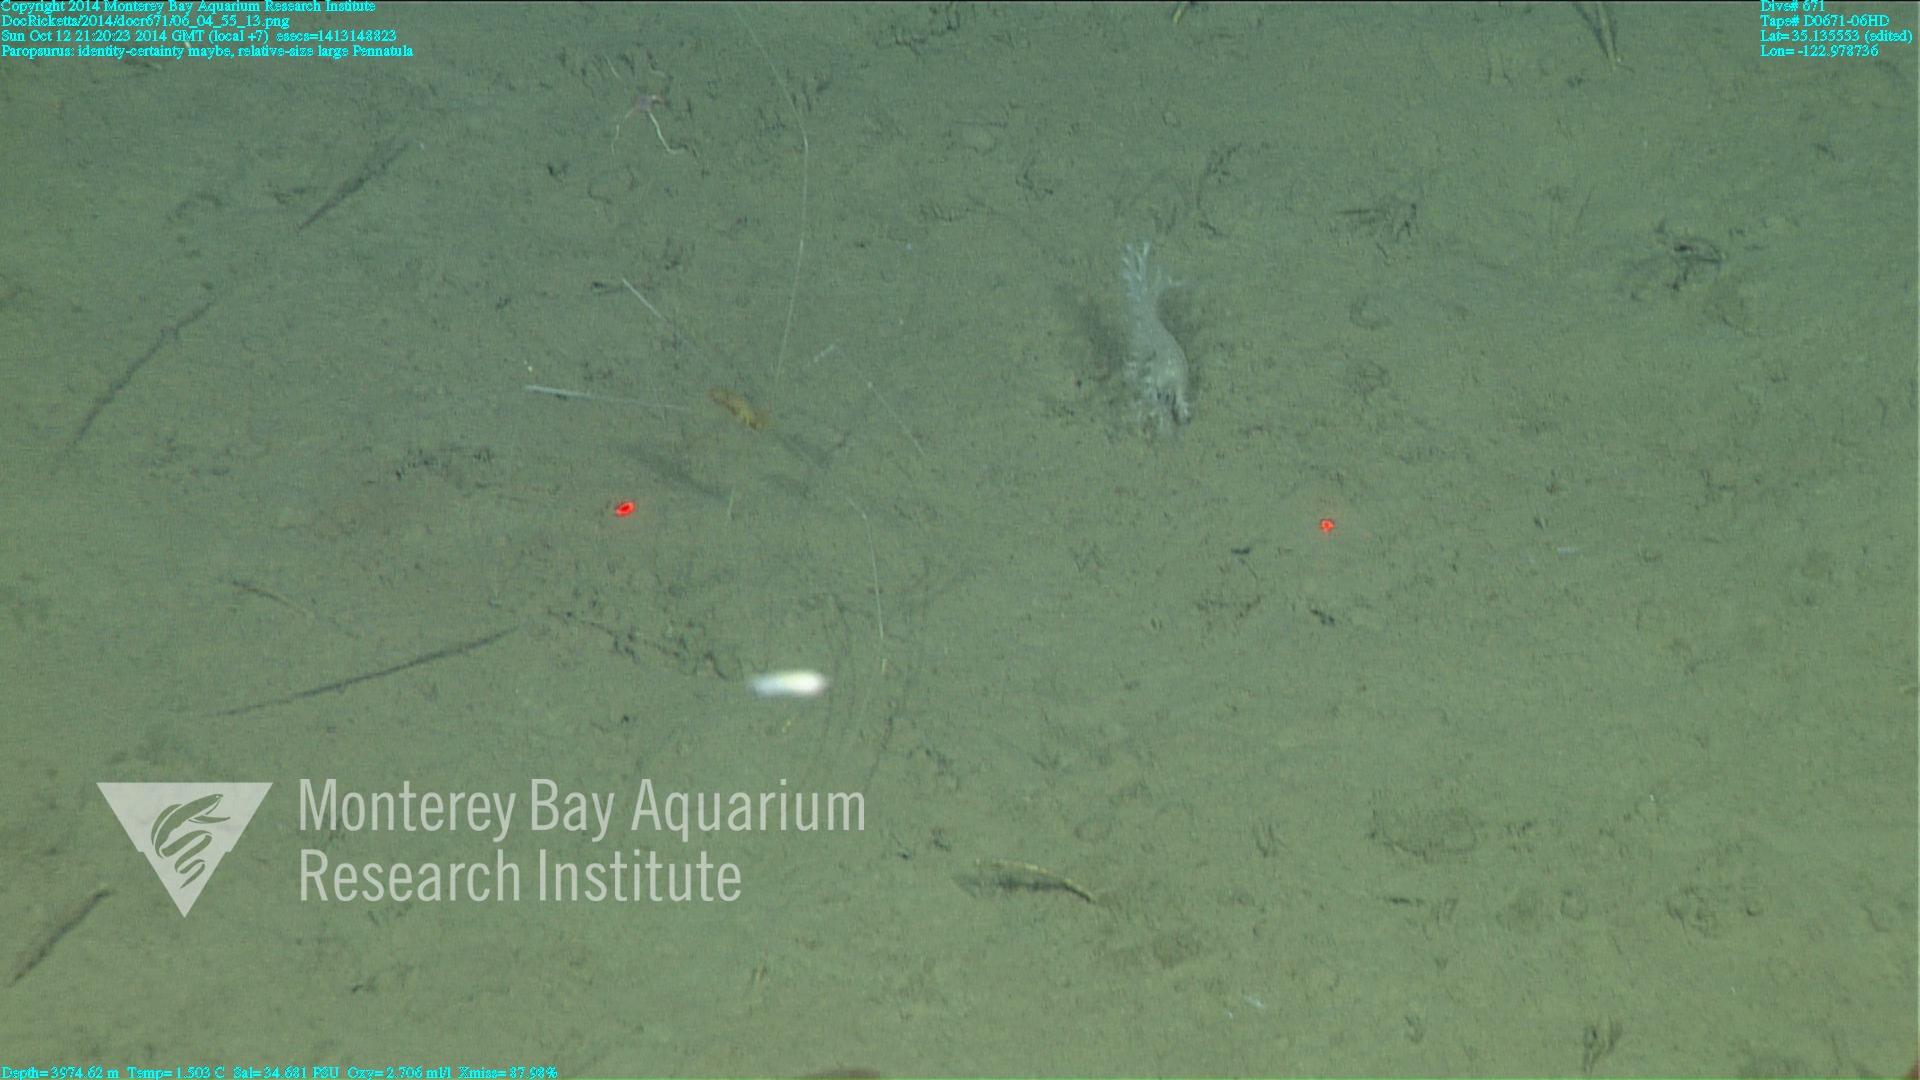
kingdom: Animalia
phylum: Cnidaria
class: Anthozoa
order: Scleralcyonacea
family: Pennatulidae
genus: Pennatula
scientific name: Pennatula
